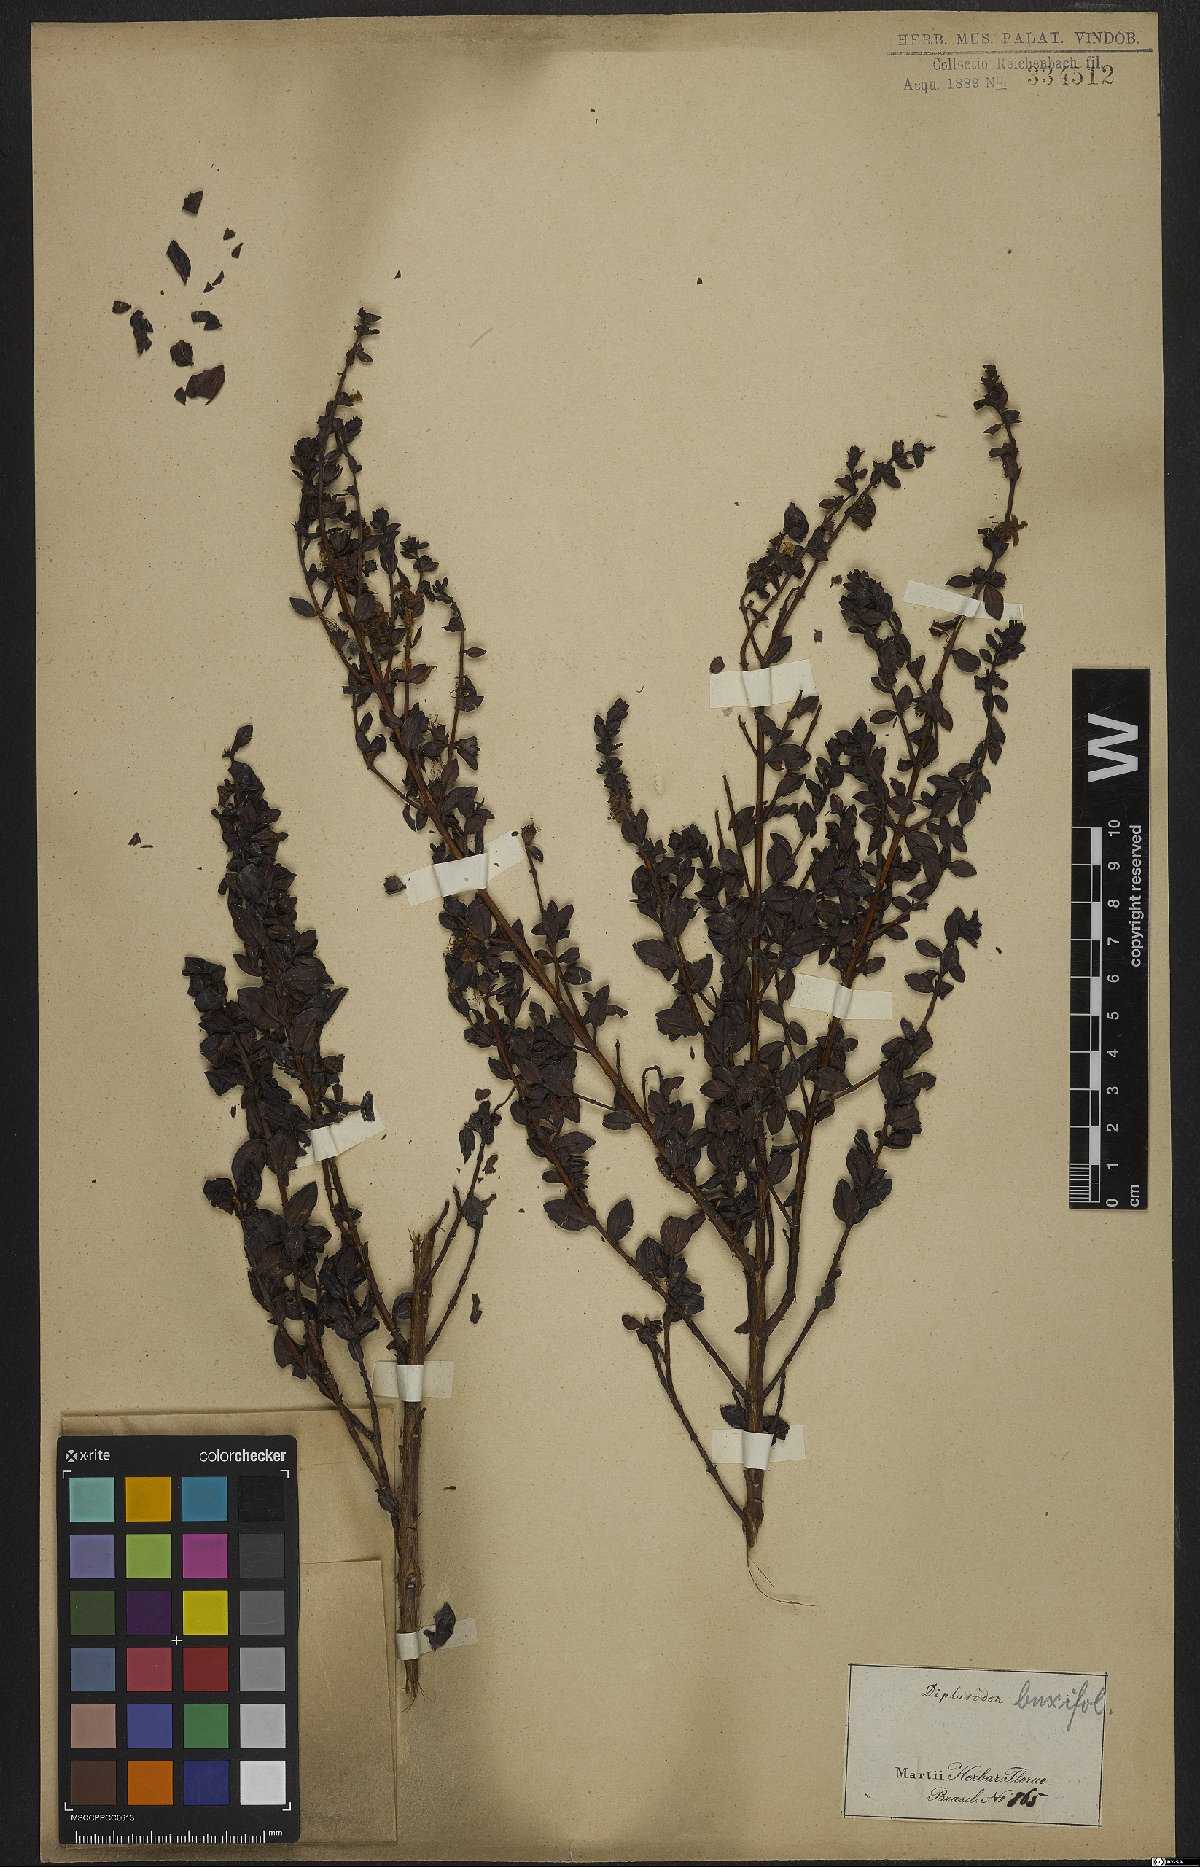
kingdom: Plantae
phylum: Tracheophyta
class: Magnoliopsida
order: Myrtales
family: Lythraceae
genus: Diplusodon
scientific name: Diplusodon buxifolius
